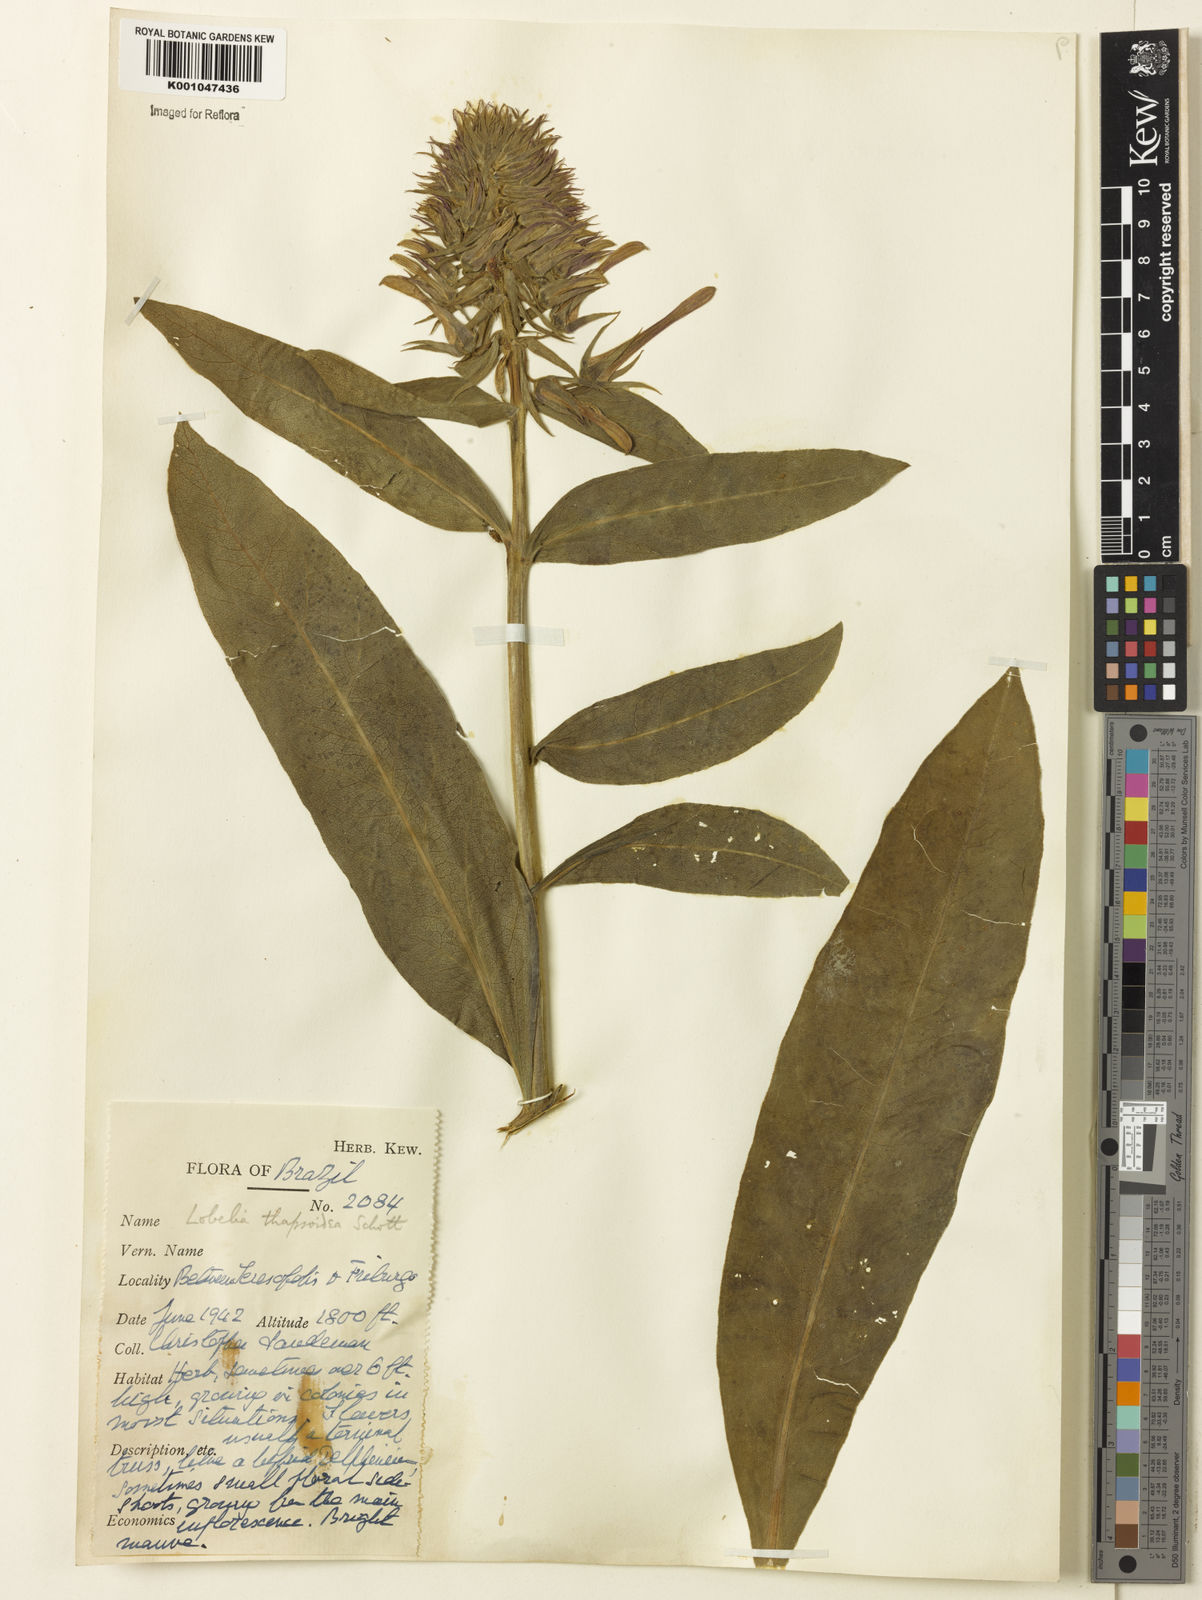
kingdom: Plantae
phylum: Tracheophyta
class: Magnoliopsida
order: Asterales
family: Campanulaceae
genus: Lobelia
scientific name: Lobelia
